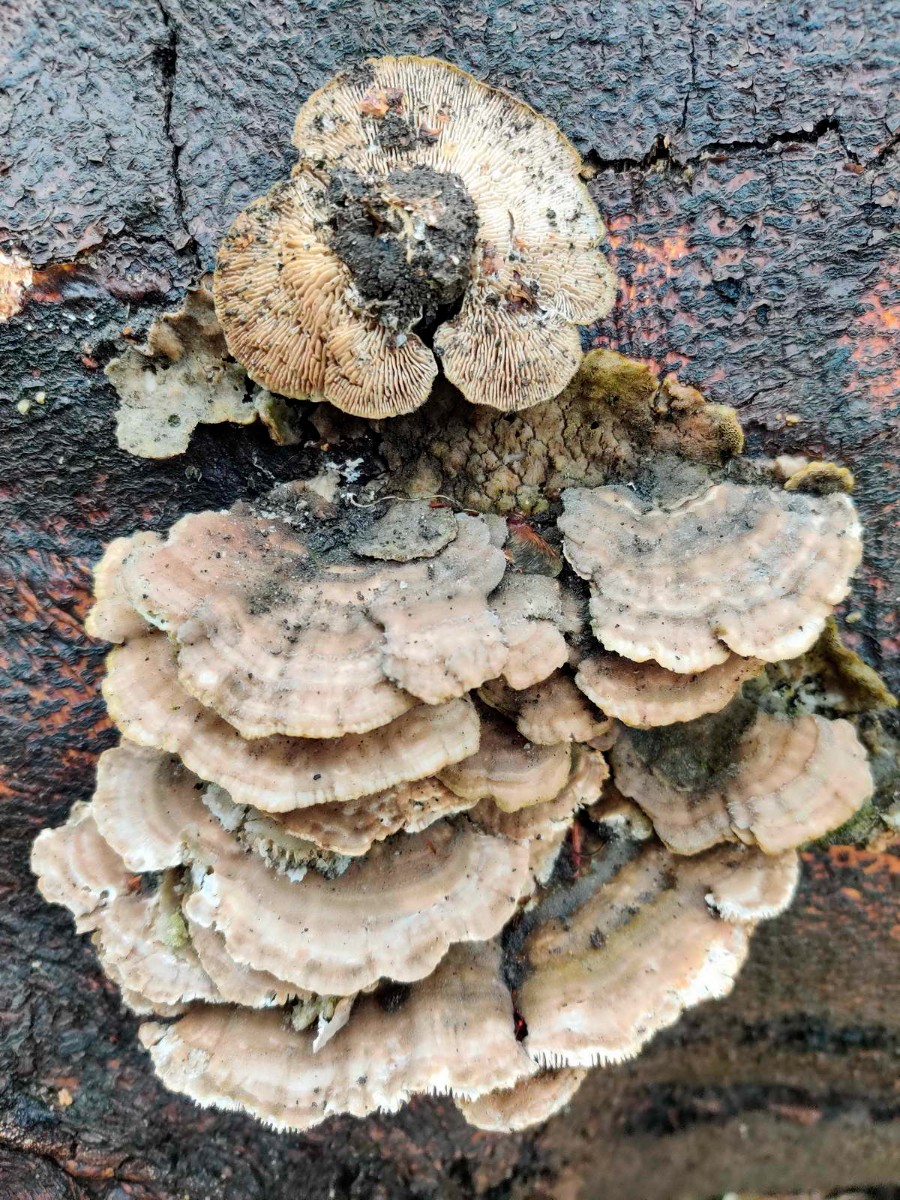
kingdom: Fungi
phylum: Basidiomycota
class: Agaricomycetes
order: Polyporales
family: Polyporaceae
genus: Lenzites
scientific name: Lenzites betulinus
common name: birke-læderporesvamp
